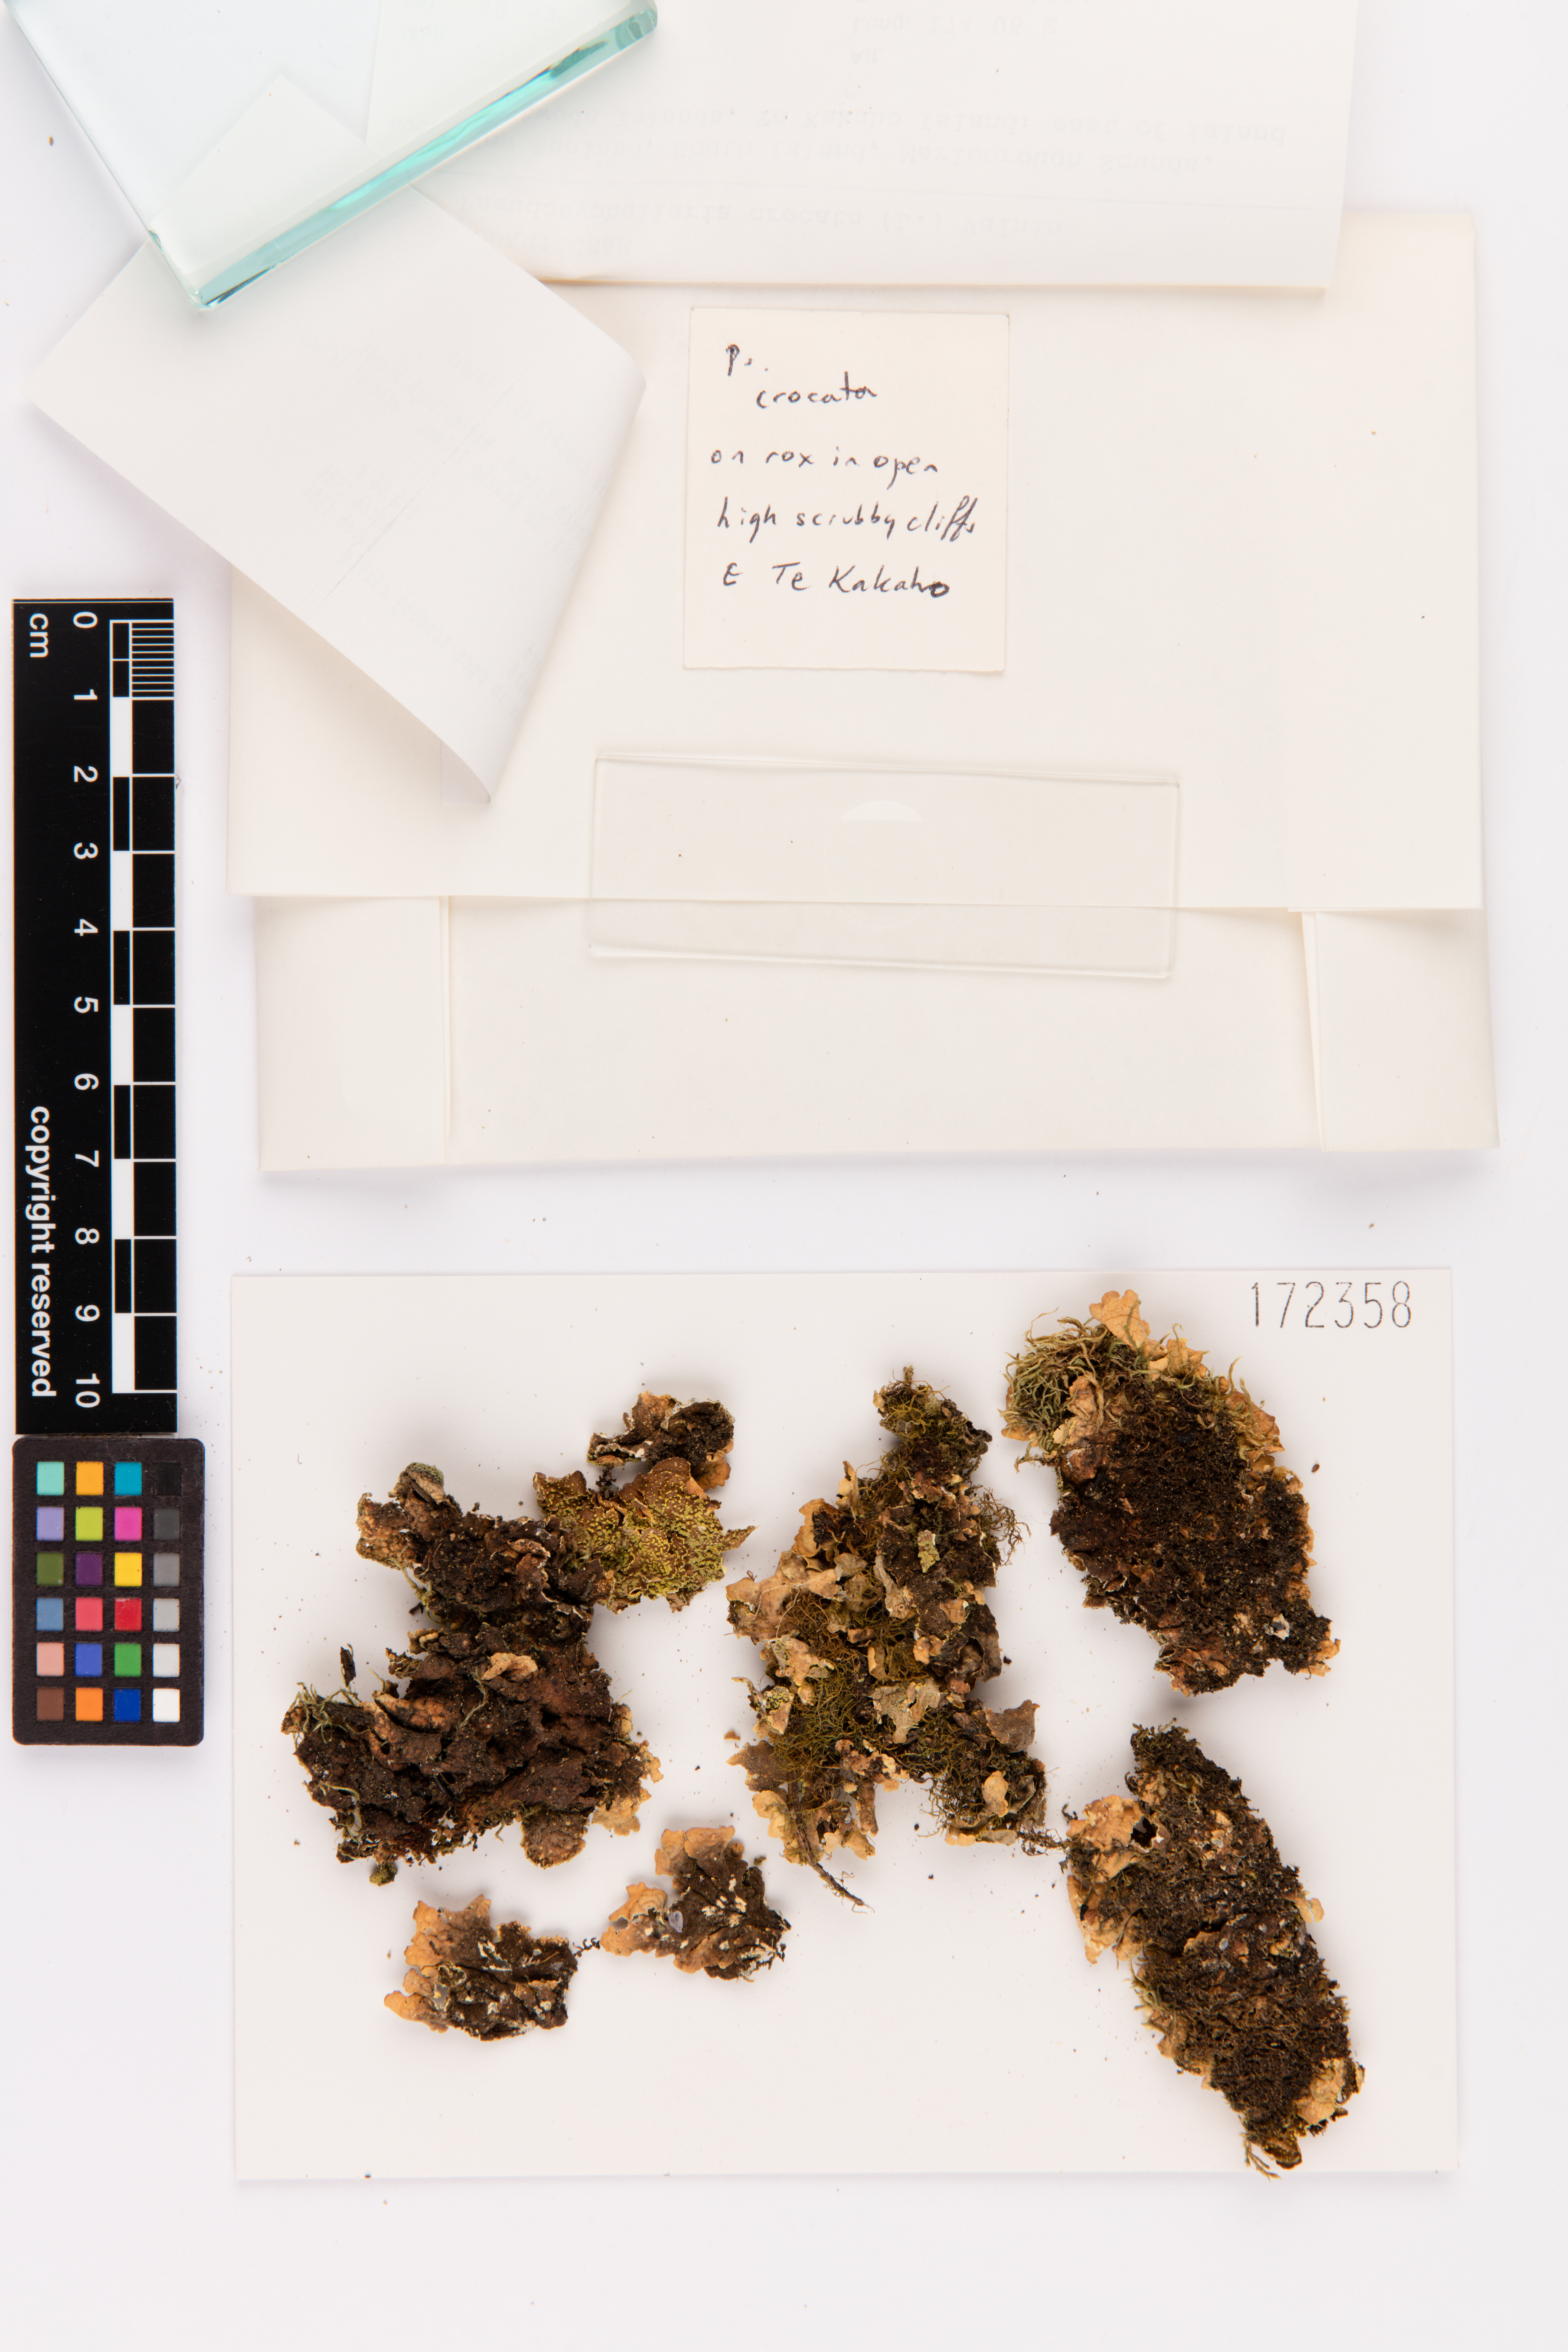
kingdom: Fungi
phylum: Ascomycota
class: Lecanoromycetes
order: Peltigerales
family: Lobariaceae
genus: Pseudocyphellaria
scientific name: Pseudocyphellaria crocata
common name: Golden specklebelly
